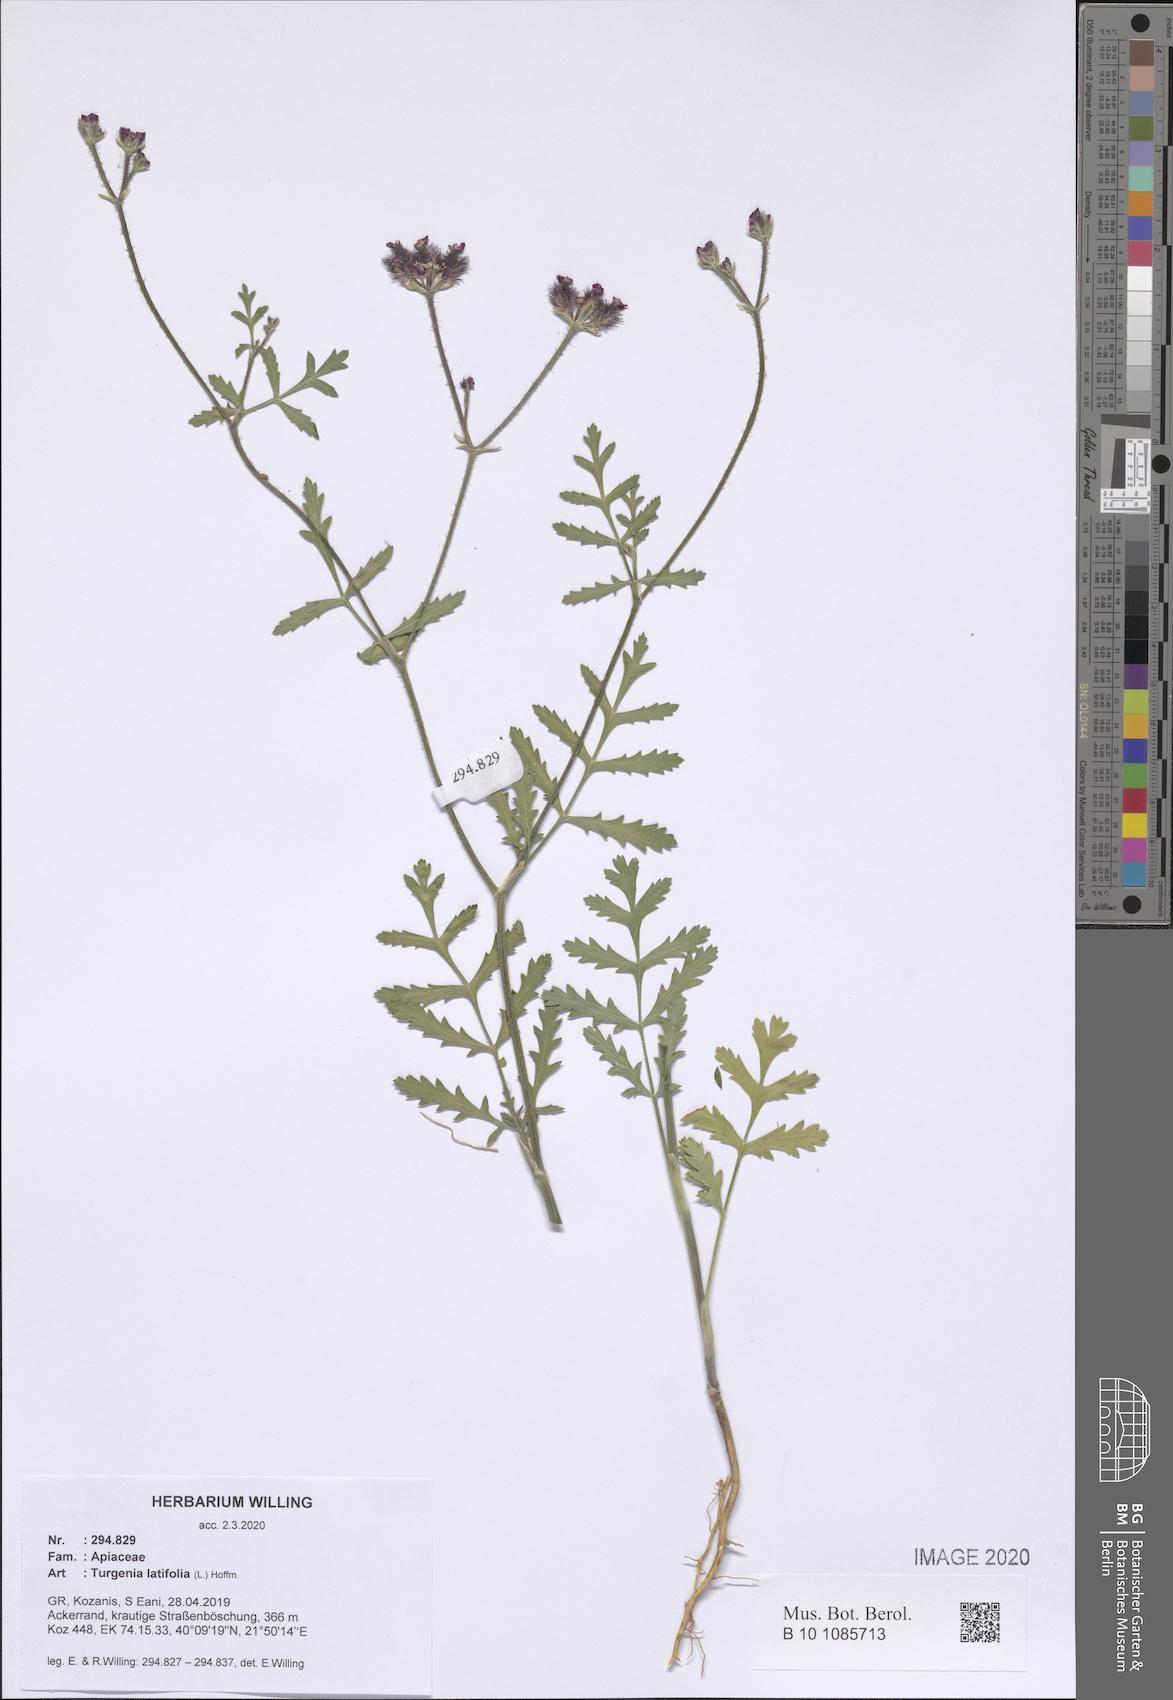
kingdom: Plantae
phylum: Tracheophyta
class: Magnoliopsida
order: Apiales
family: Apiaceae
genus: Turgenia
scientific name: Turgenia latifolia
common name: Greater bur-parsley
